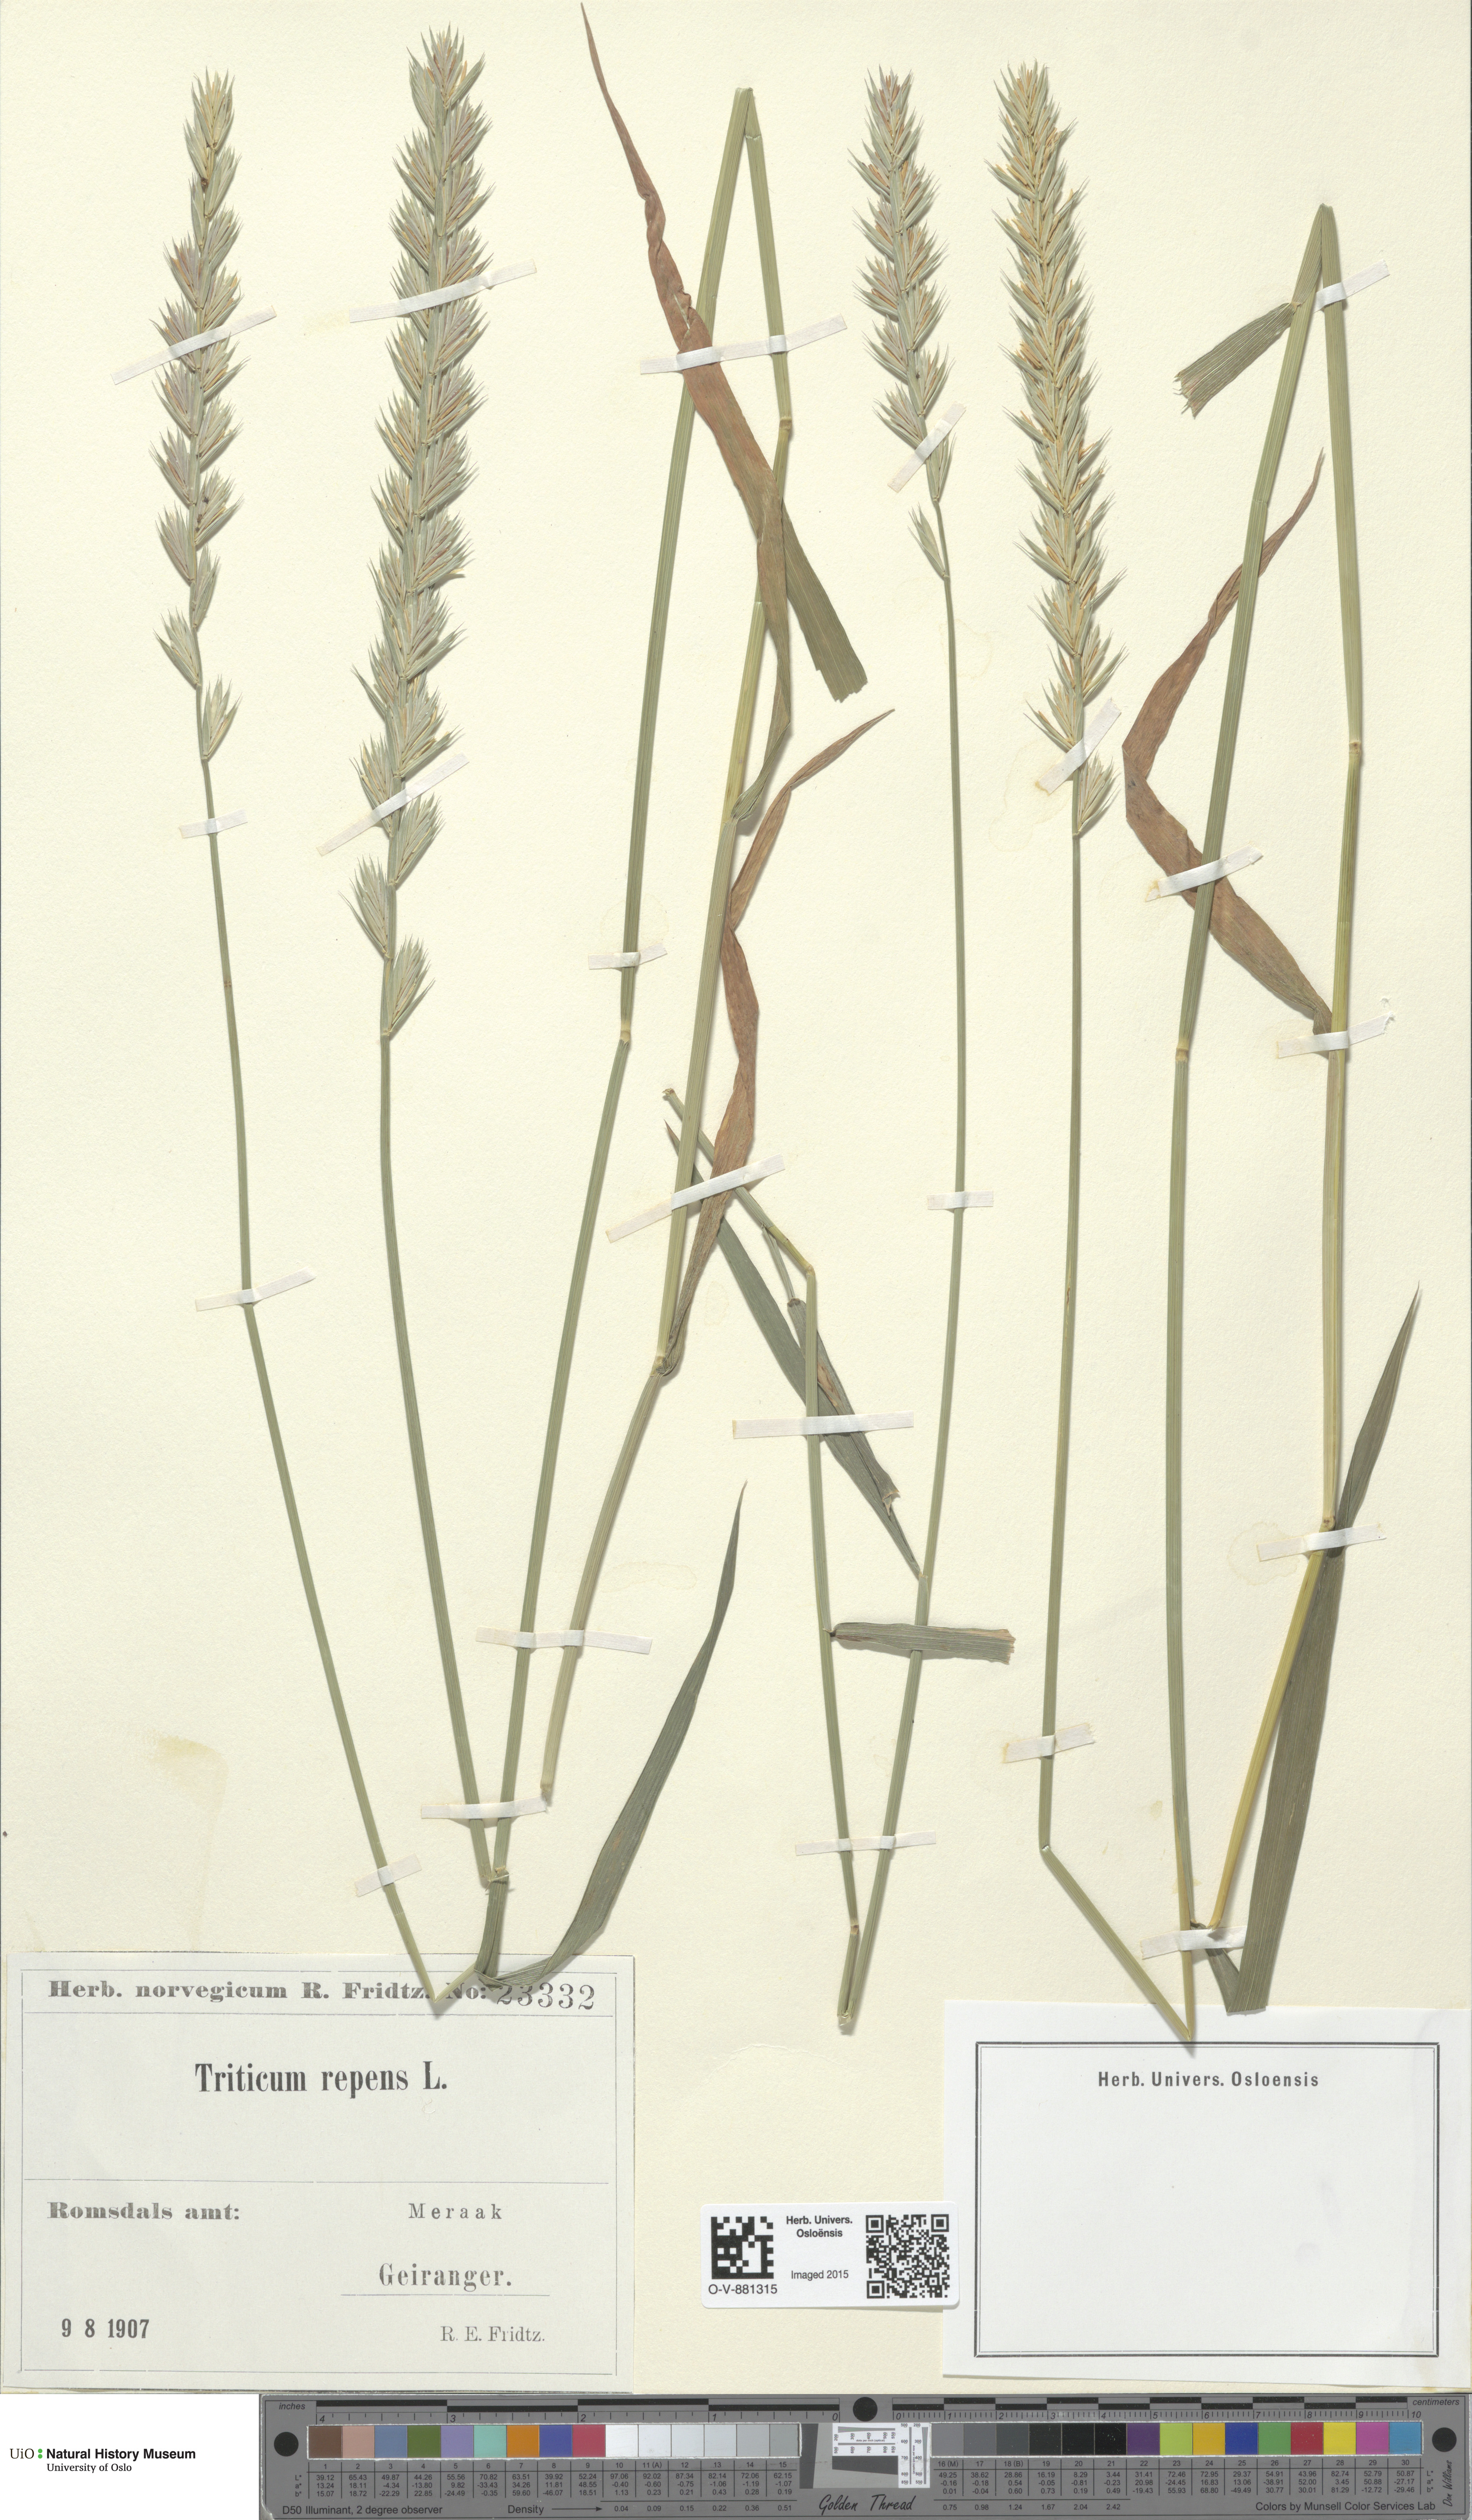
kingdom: Plantae
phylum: Tracheophyta
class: Liliopsida
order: Poales
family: Poaceae
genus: Elymus
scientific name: Elymus repens
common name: Quackgrass
